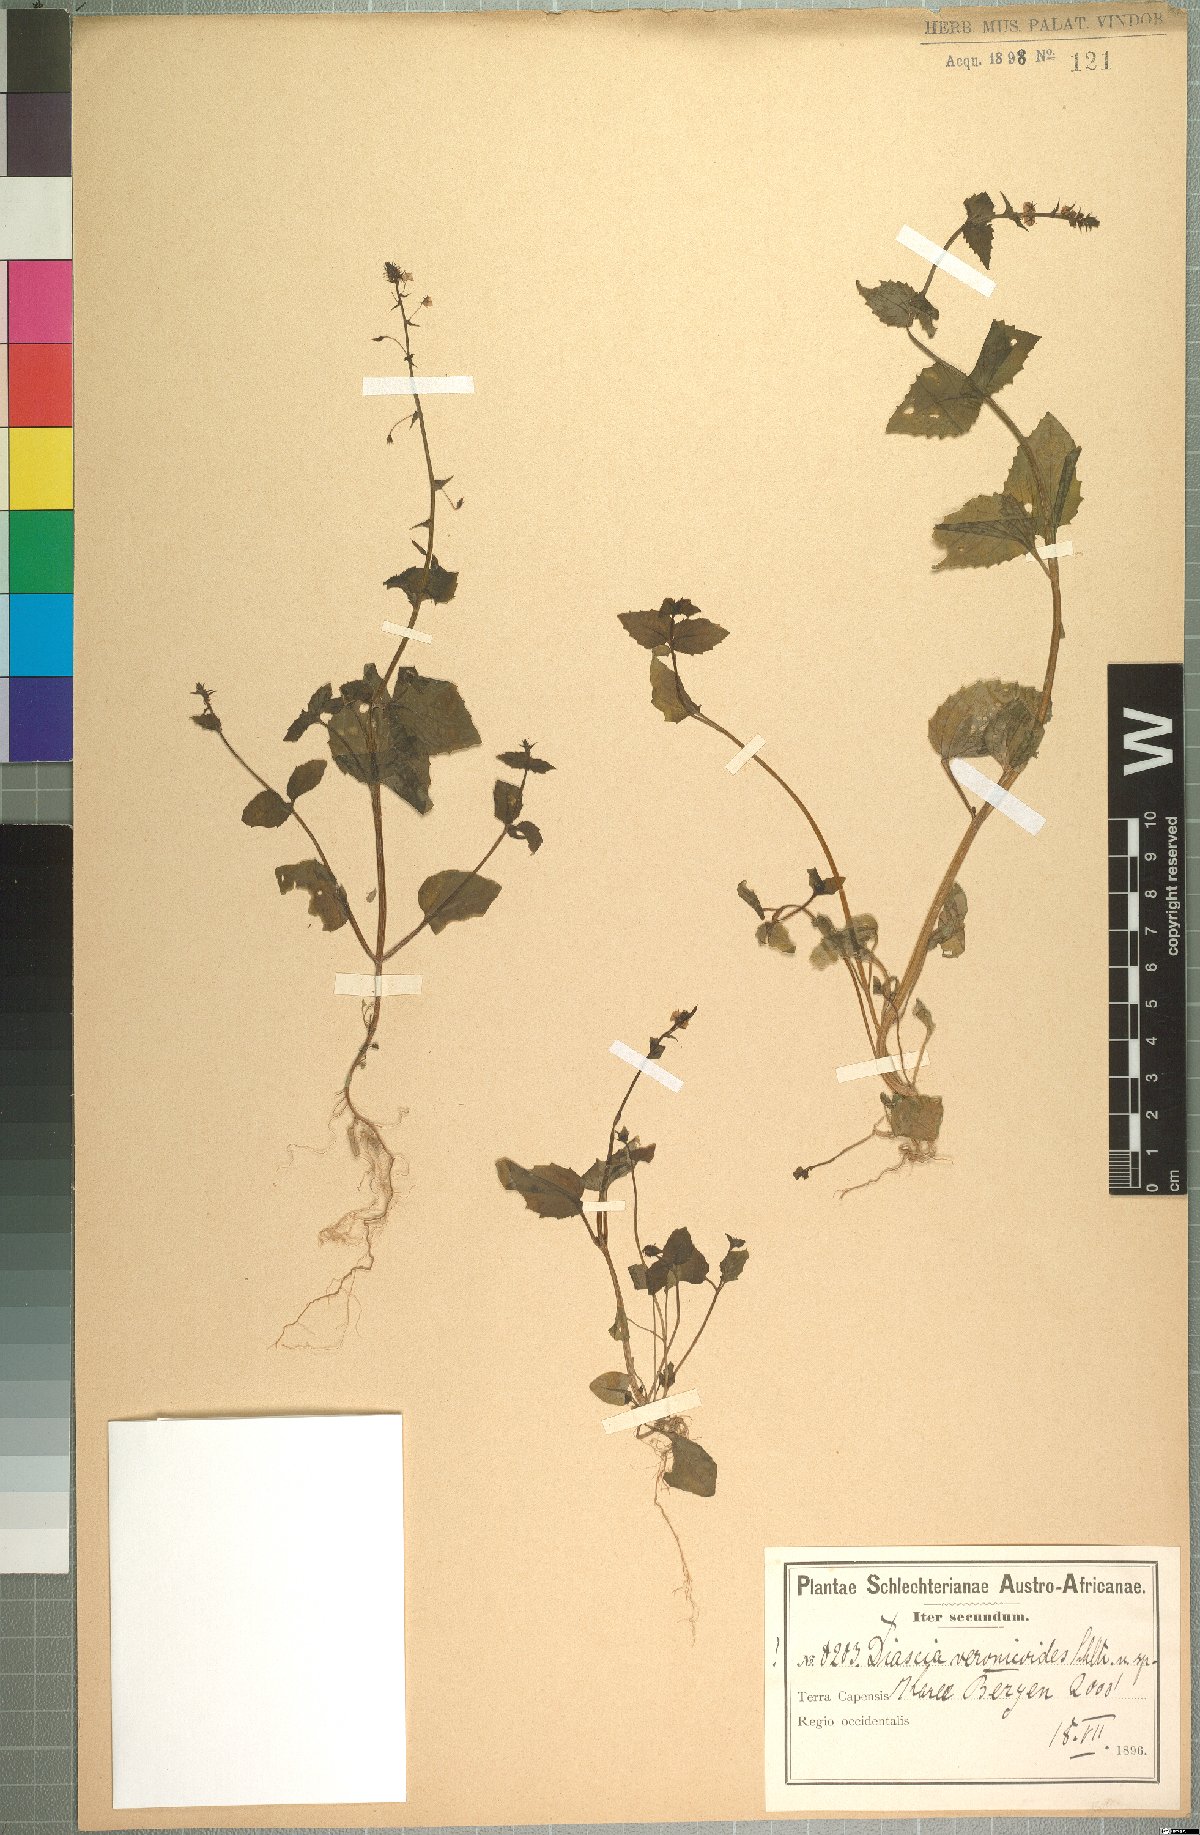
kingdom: Plantae
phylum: Tracheophyta
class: Magnoliopsida
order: Lamiales
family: Scrophulariaceae
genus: Diascia
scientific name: Diascia veronicoides
